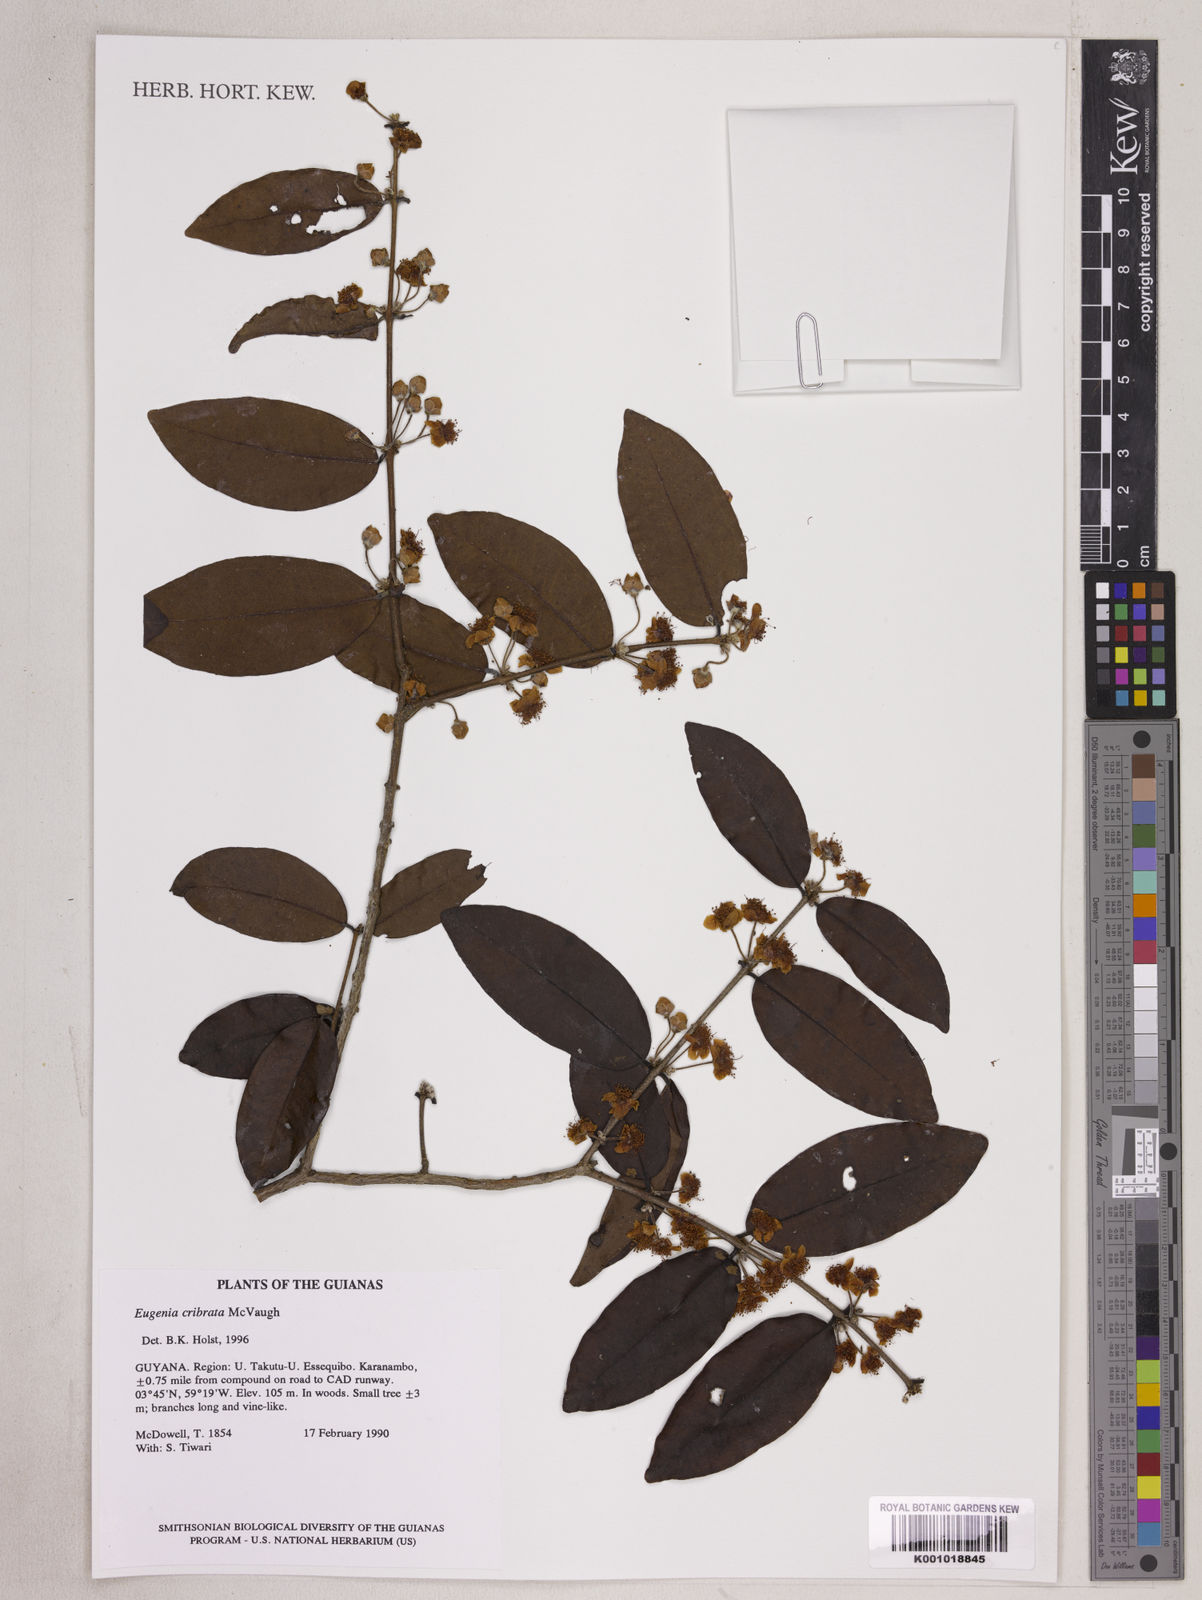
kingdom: Plantae
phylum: Tracheophyta
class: Magnoliopsida
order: Myrtales
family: Myrtaceae
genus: Eugenia
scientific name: Eugenia cribrata
